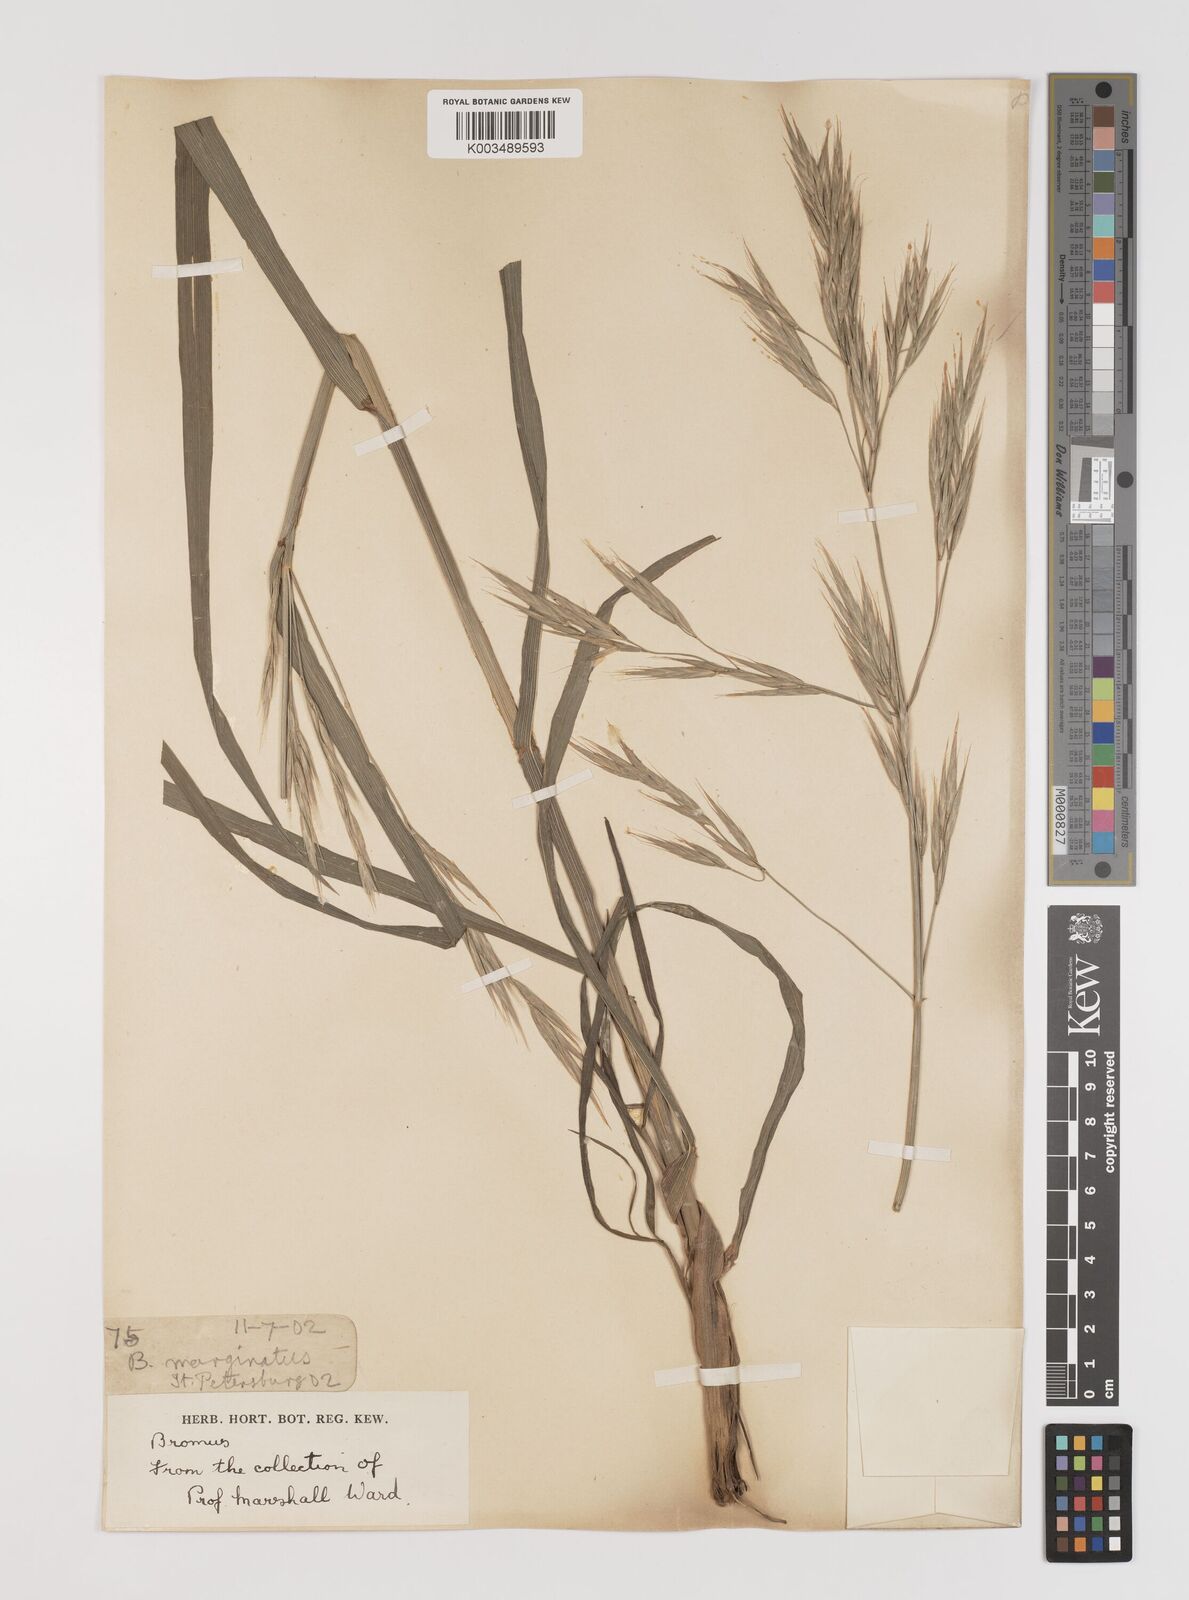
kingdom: Plantae
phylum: Tracheophyta
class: Liliopsida
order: Poales
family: Poaceae
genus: Bromus
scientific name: Bromus carinatus
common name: Mountain brome
